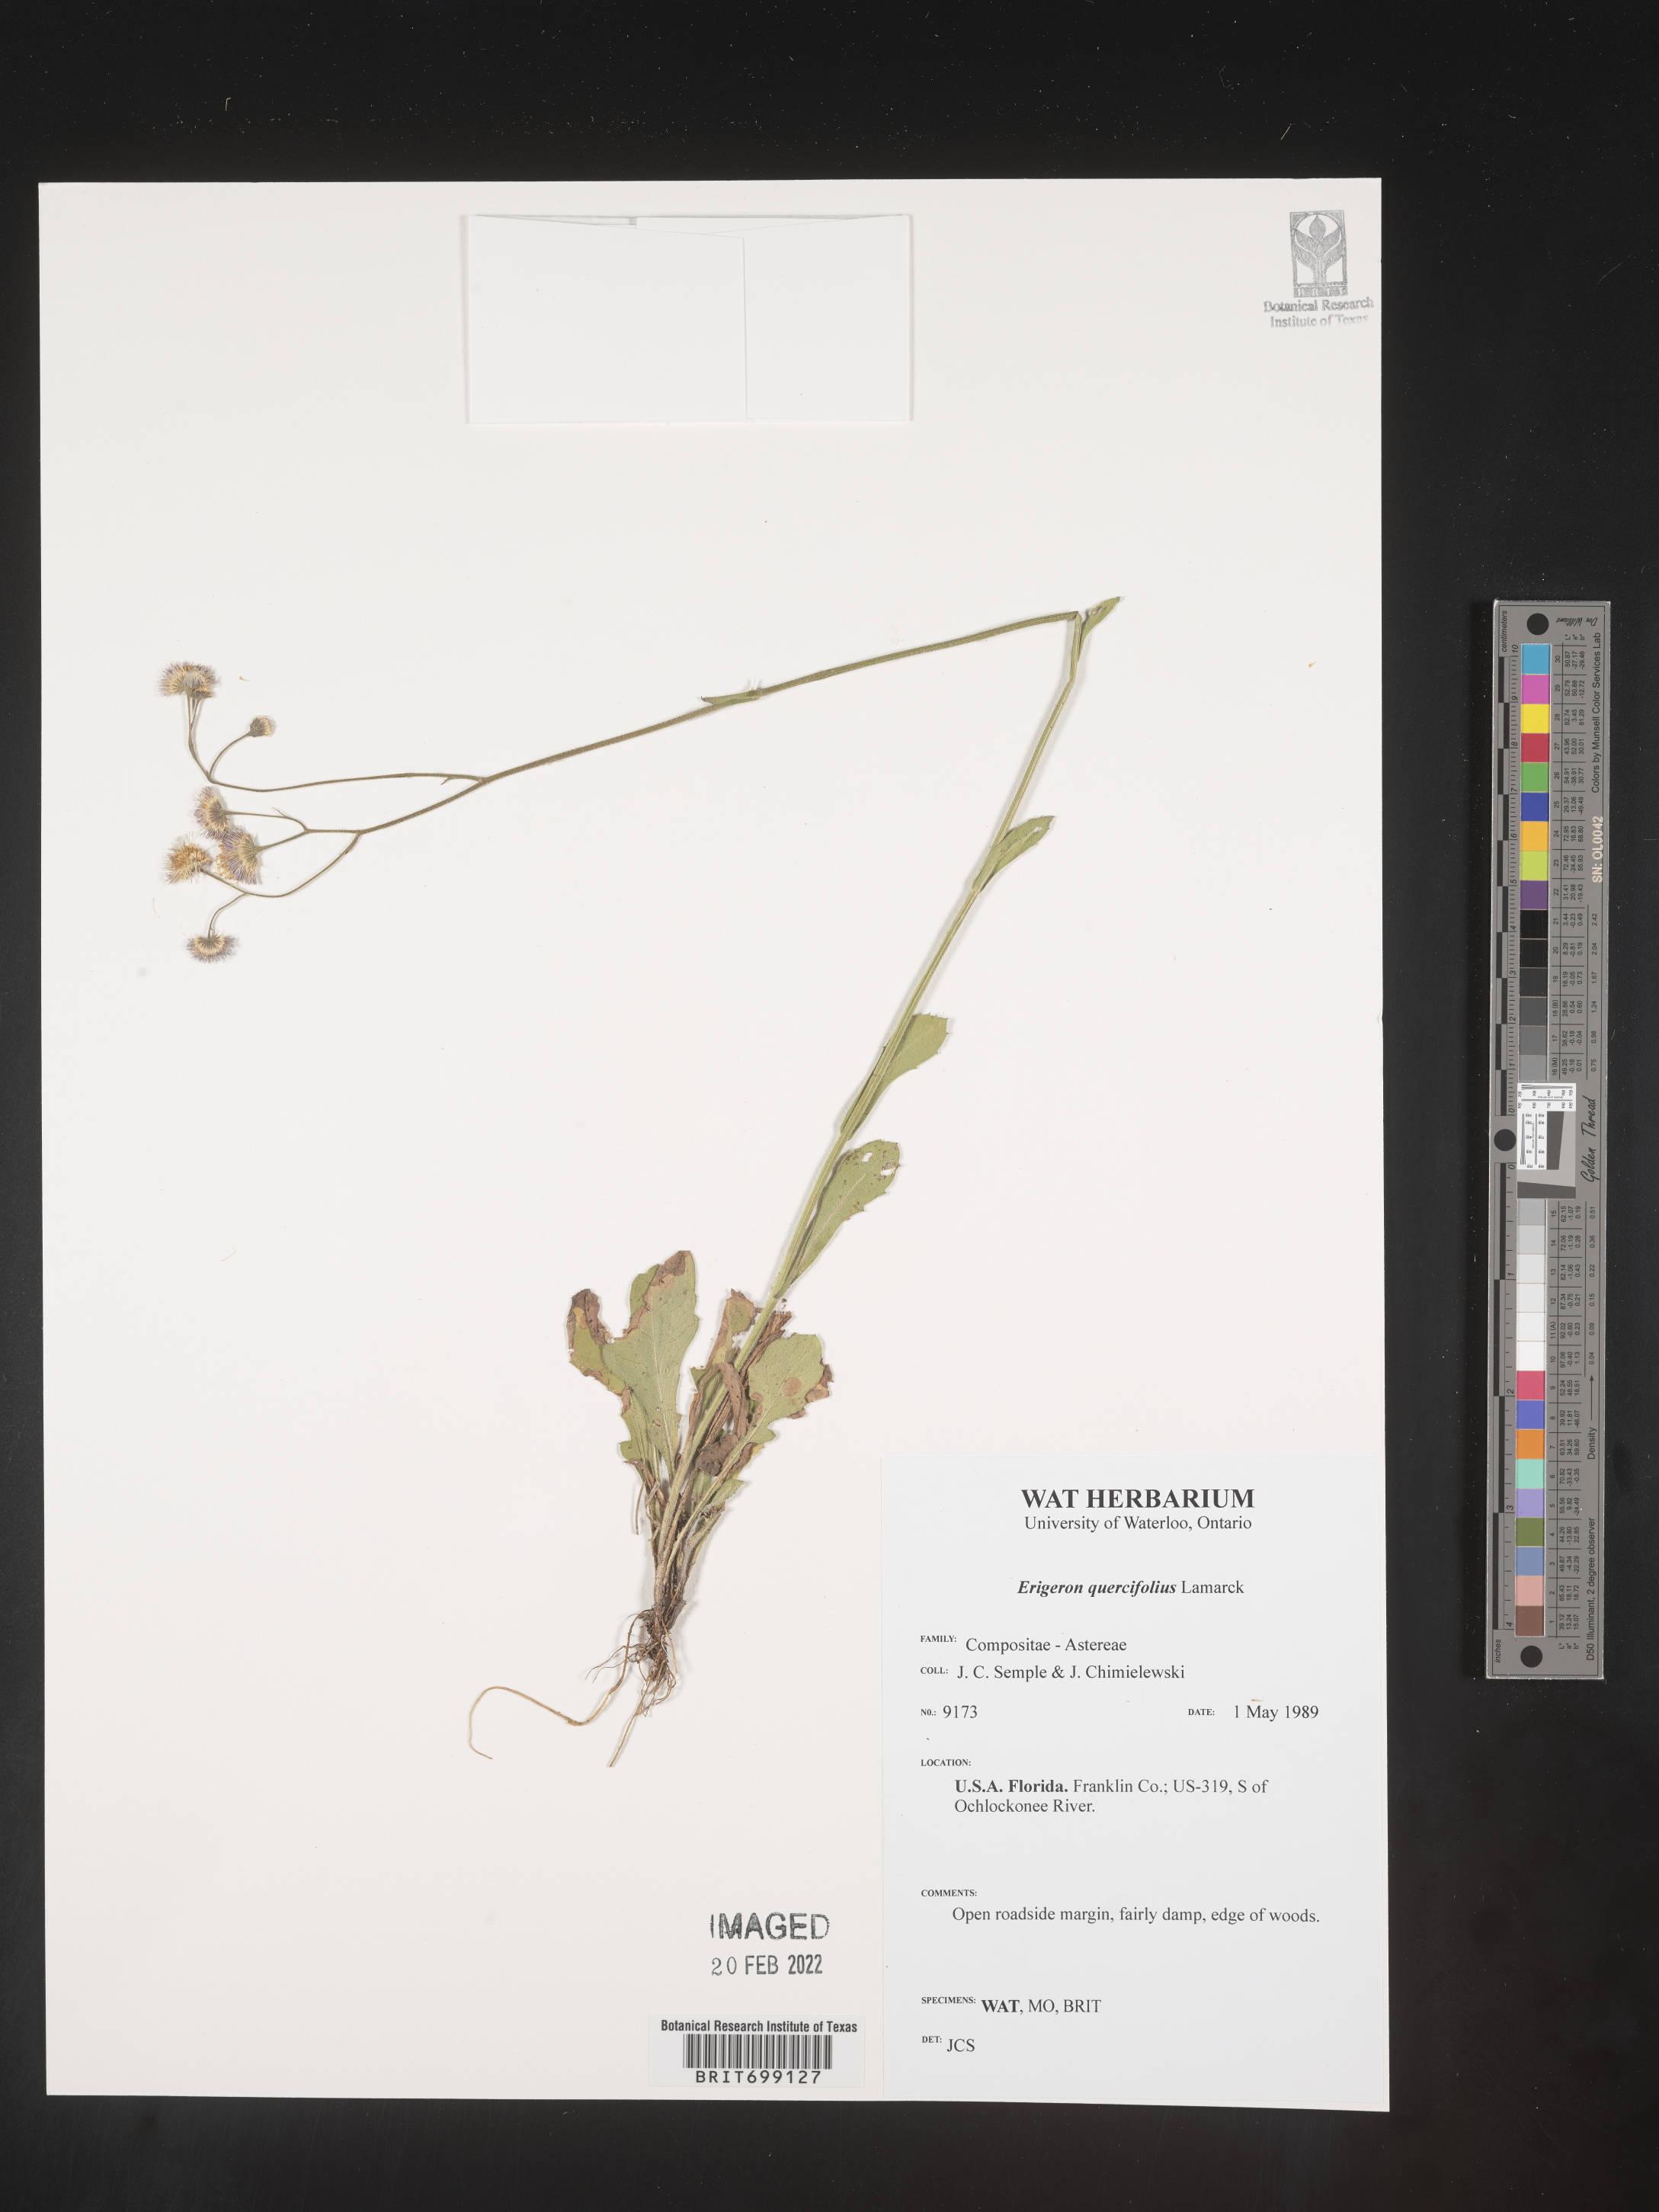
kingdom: Plantae
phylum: Tracheophyta
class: Magnoliopsida
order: Asterales
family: Asteraceae
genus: Erigeron
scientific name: Erigeron quercifolius
